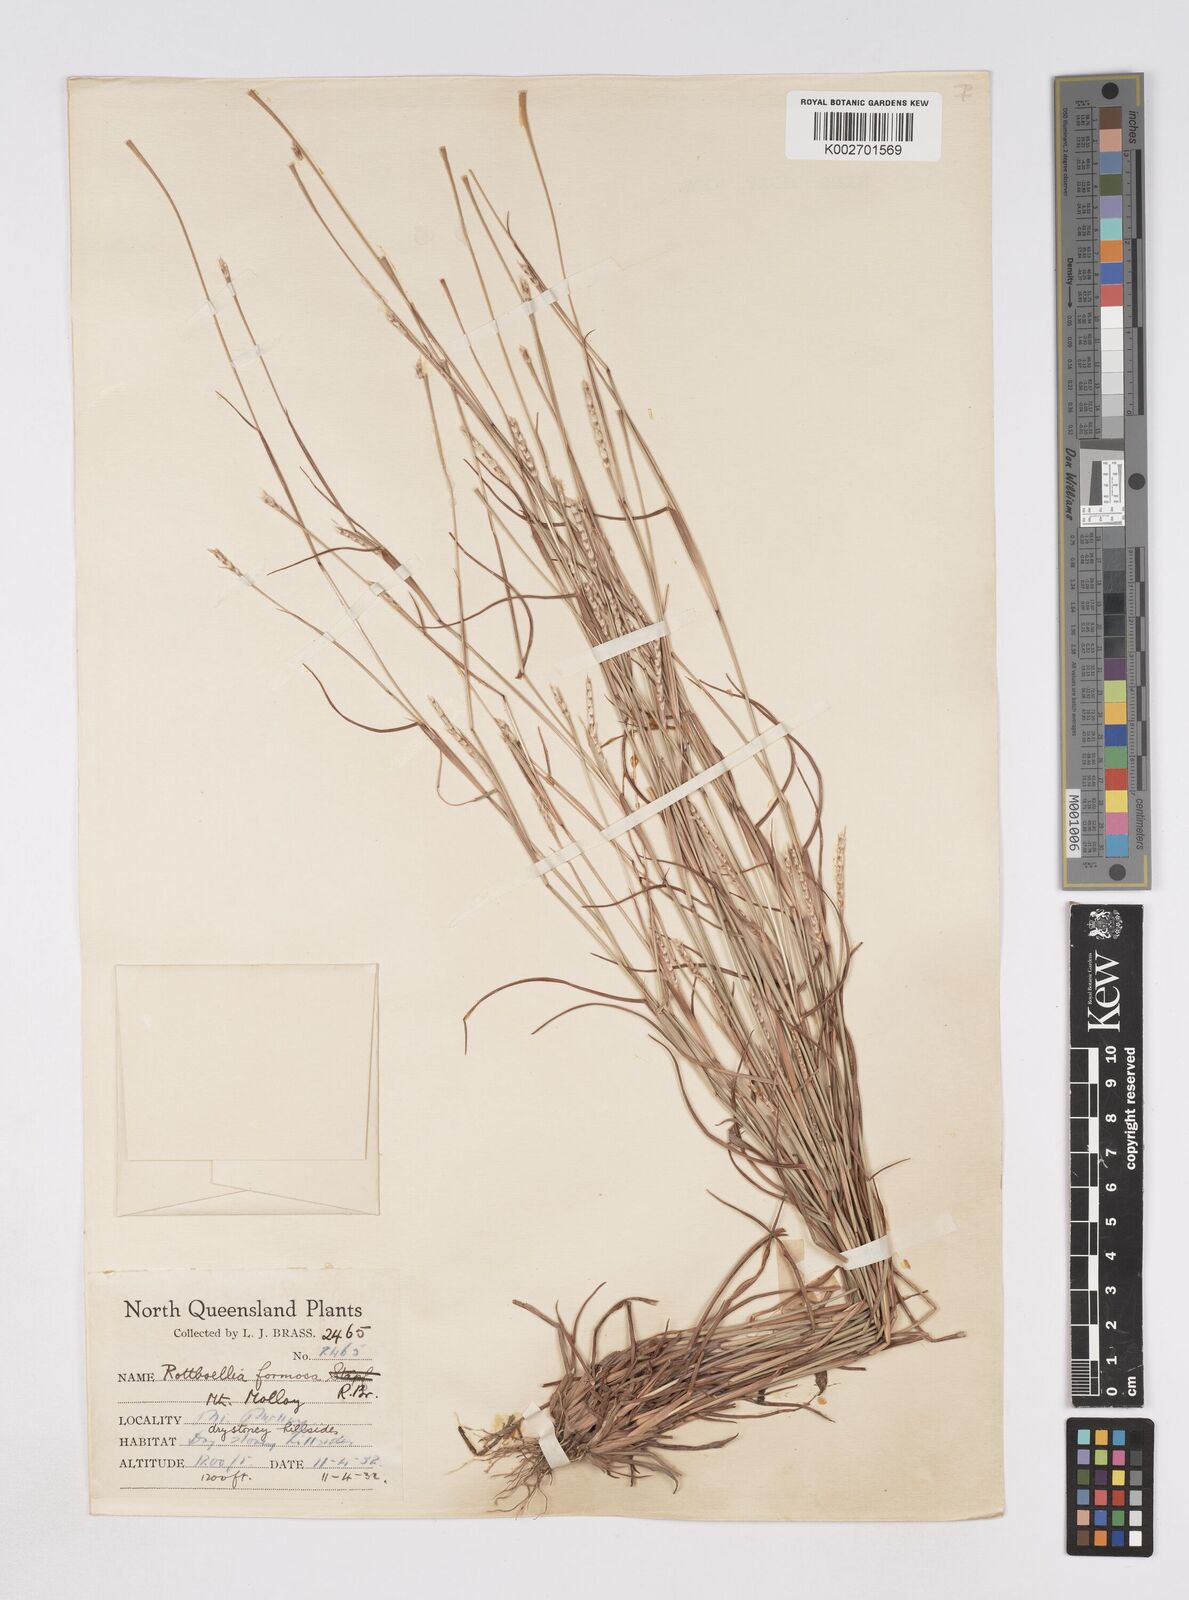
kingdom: Plantae
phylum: Tracheophyta
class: Liliopsida
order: Poales
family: Poaceae
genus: Heteropholis
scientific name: Heteropholis
